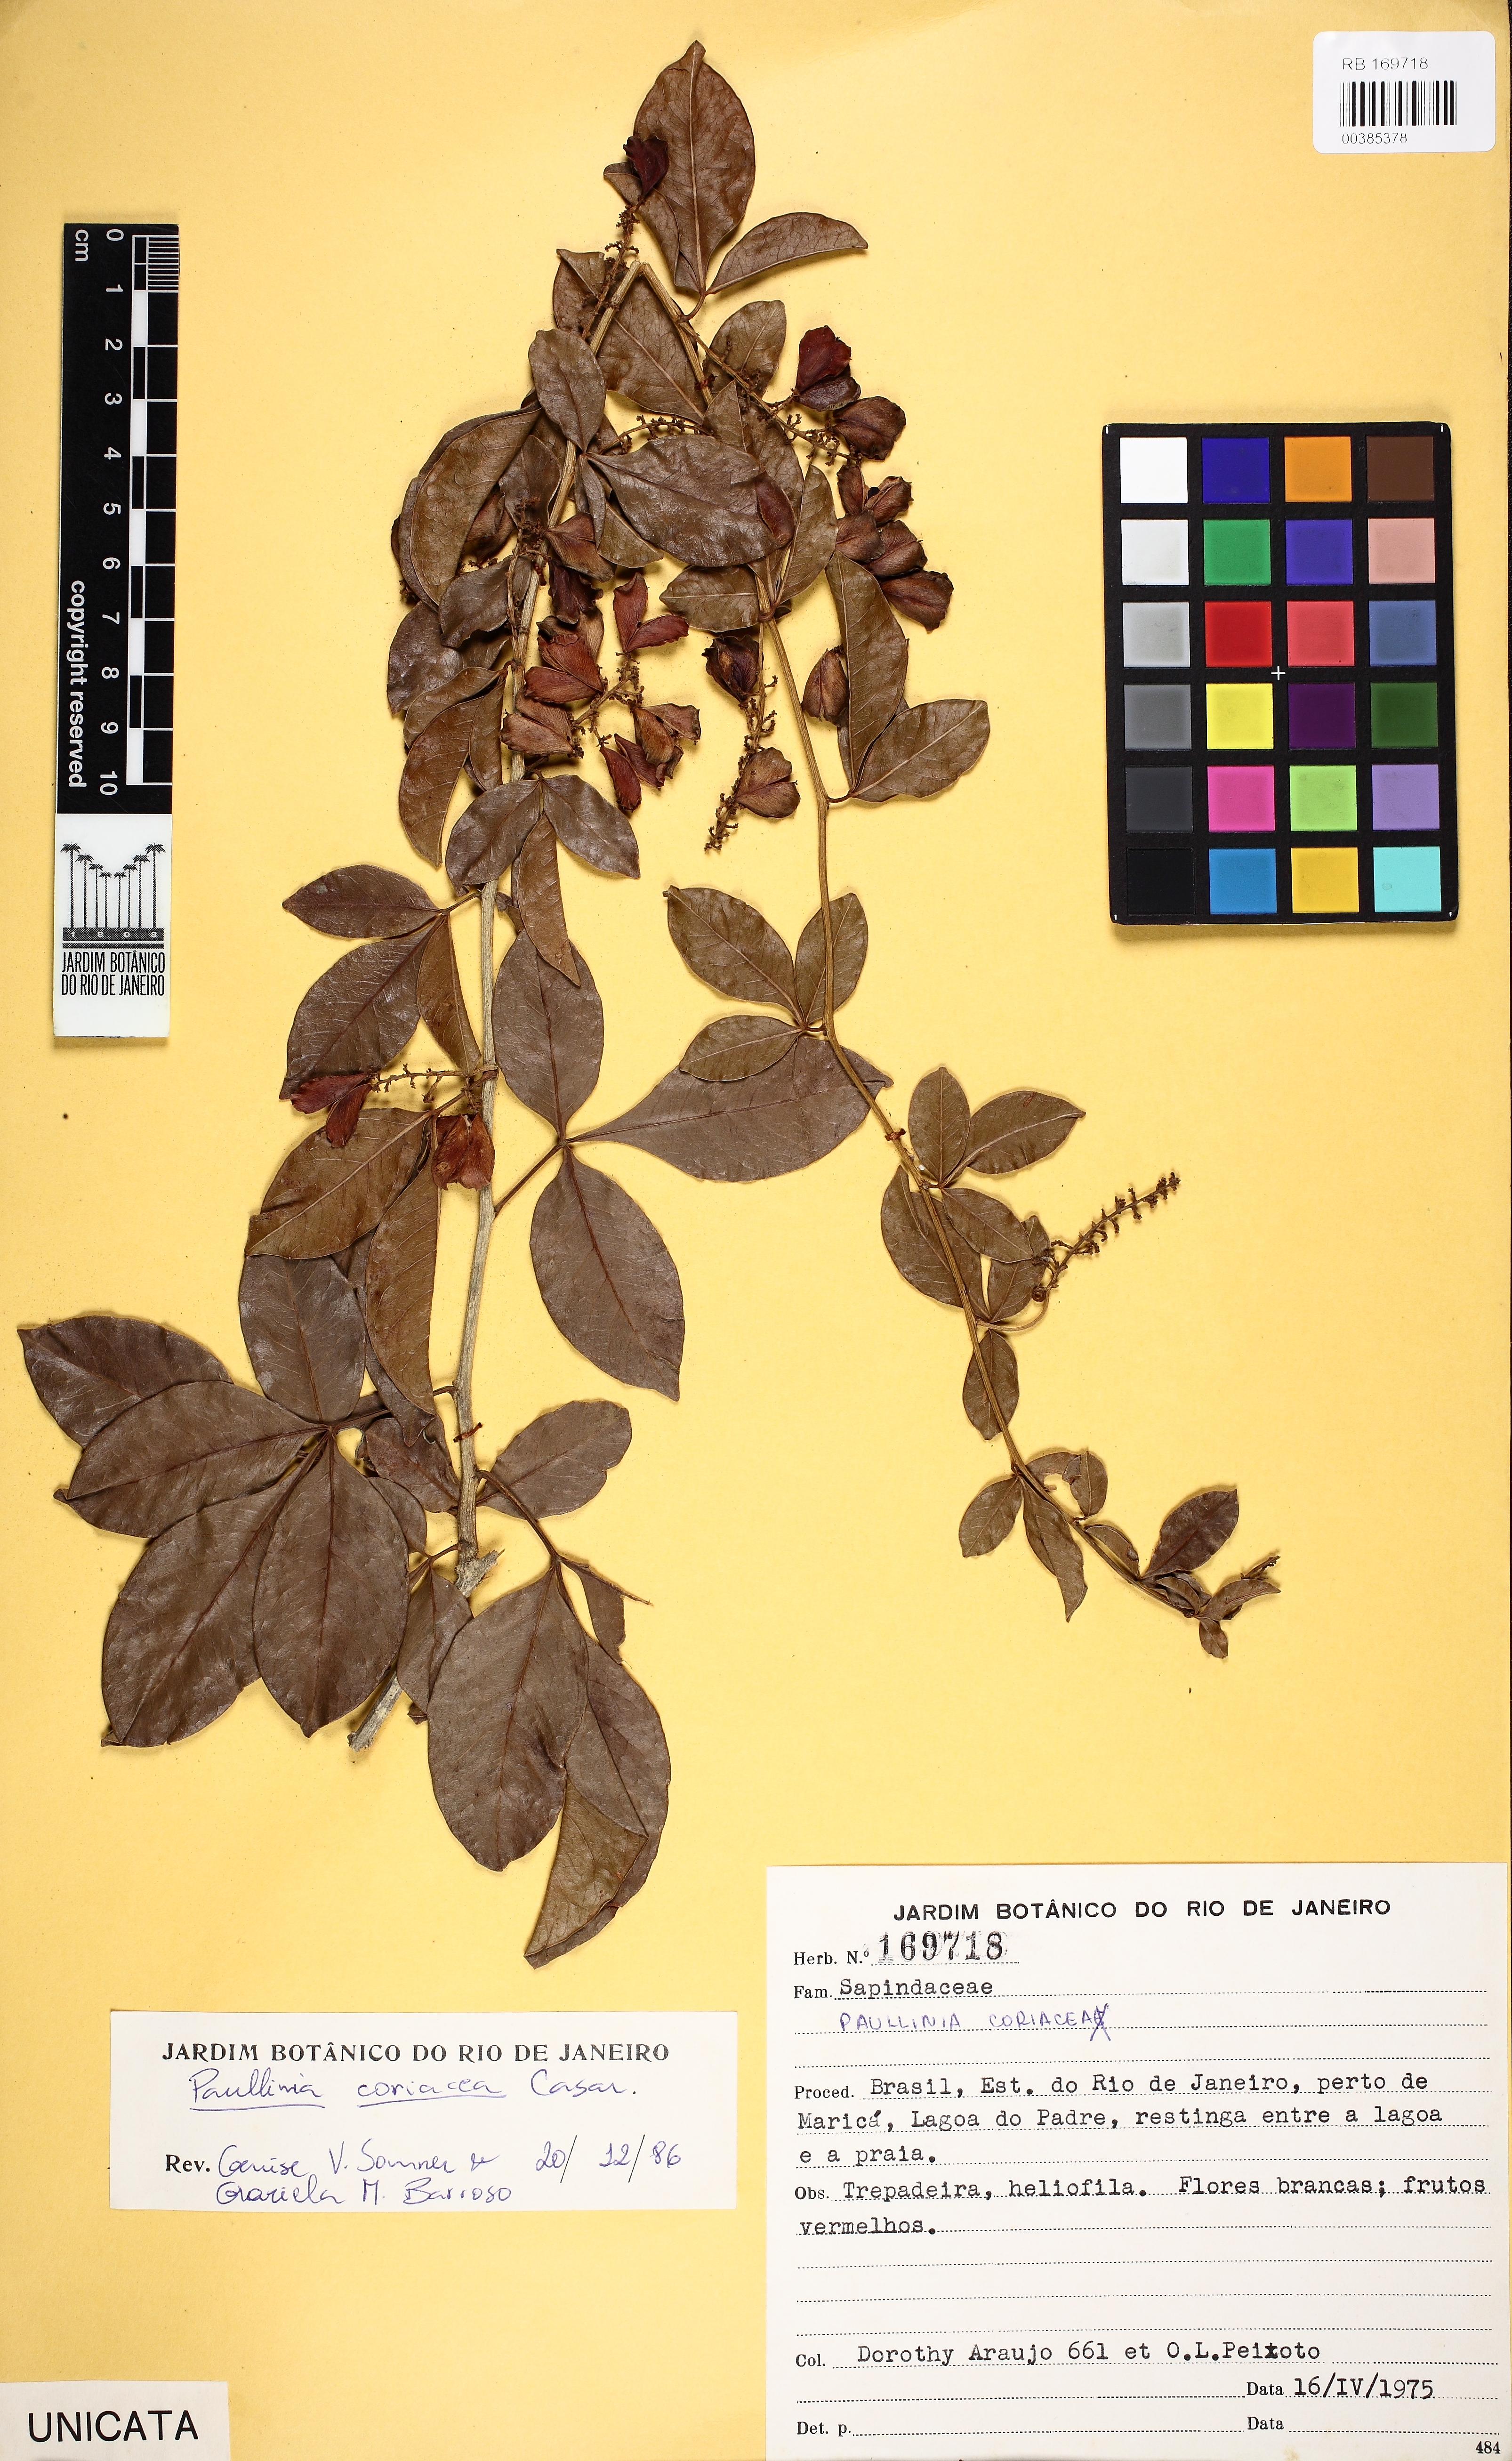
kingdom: Plantae
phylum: Tracheophyta
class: Magnoliopsida
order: Sapindales
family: Sapindaceae
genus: Paullinia
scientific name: Paullinia coriacea
